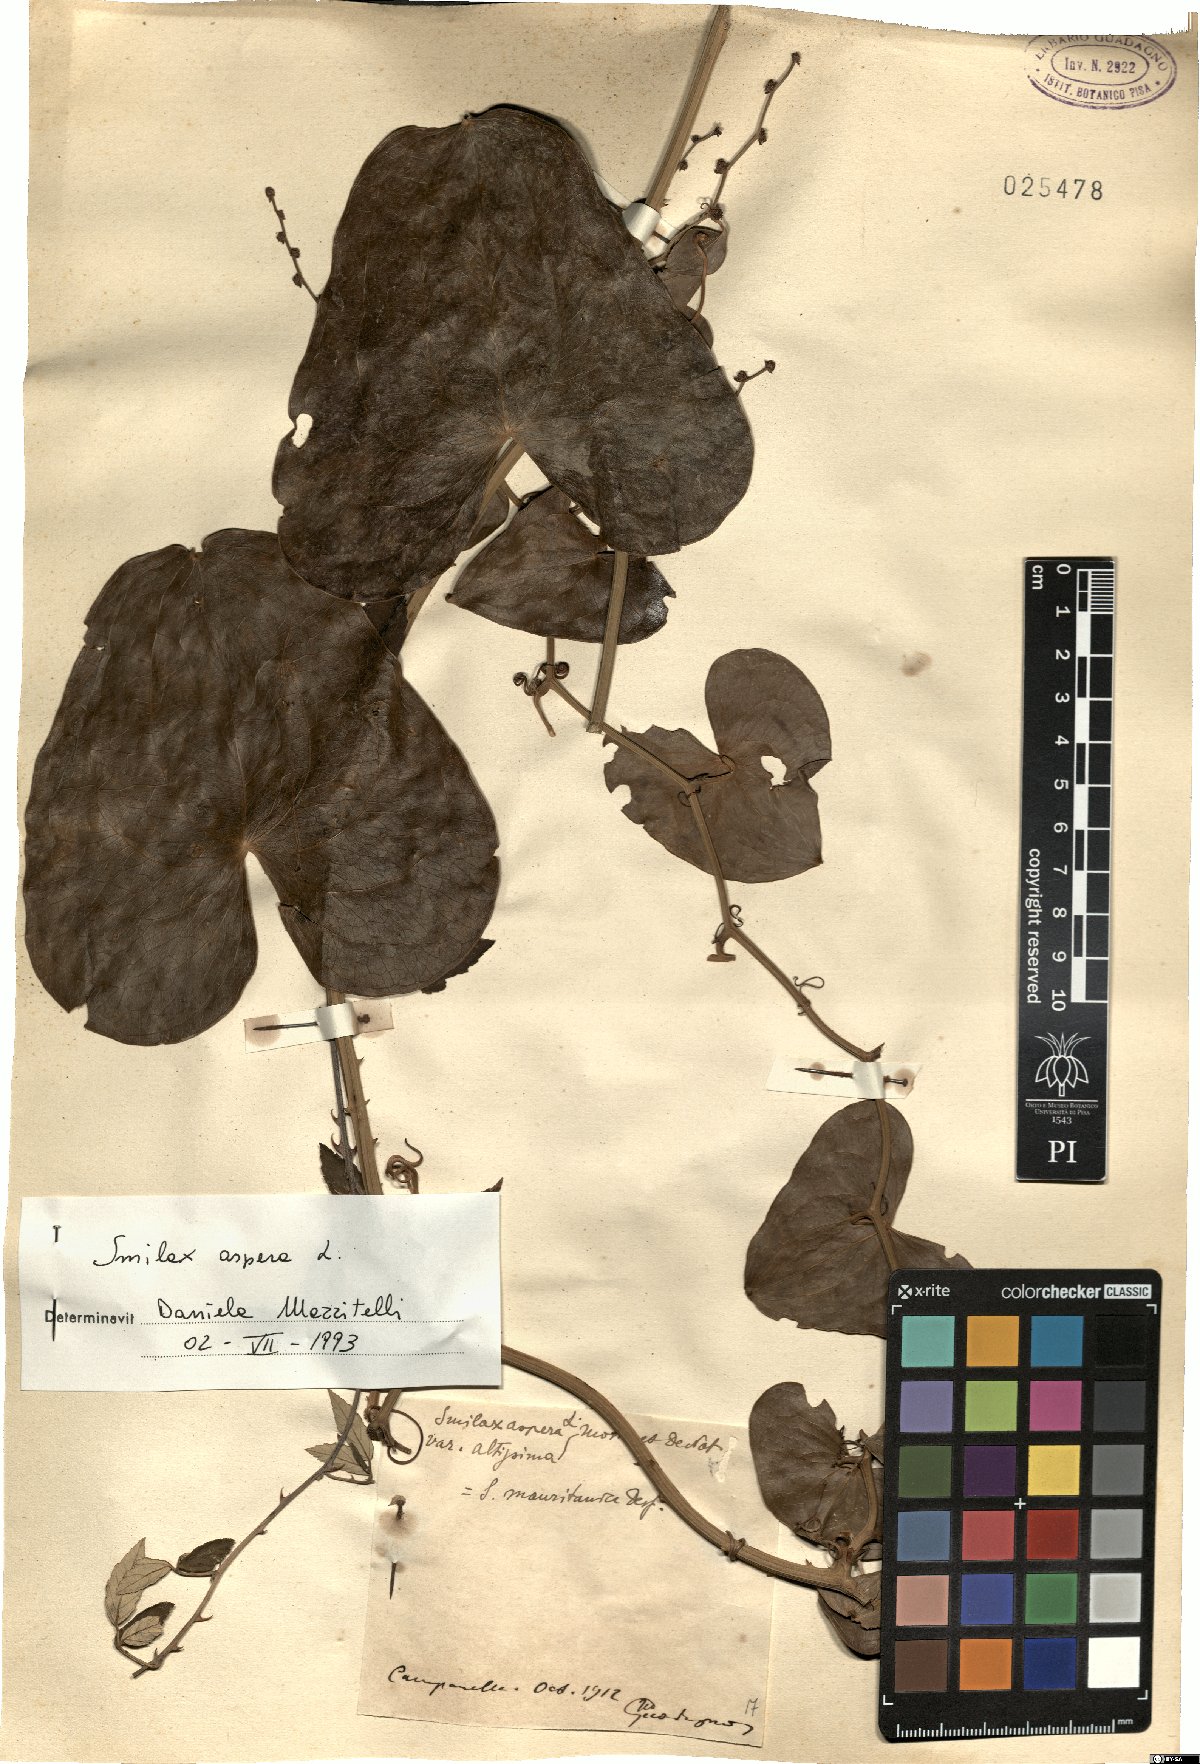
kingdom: Plantae
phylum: Tracheophyta
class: Liliopsida
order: Liliales
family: Smilacaceae
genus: Smilax
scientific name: Smilax aspera
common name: Common smilax
